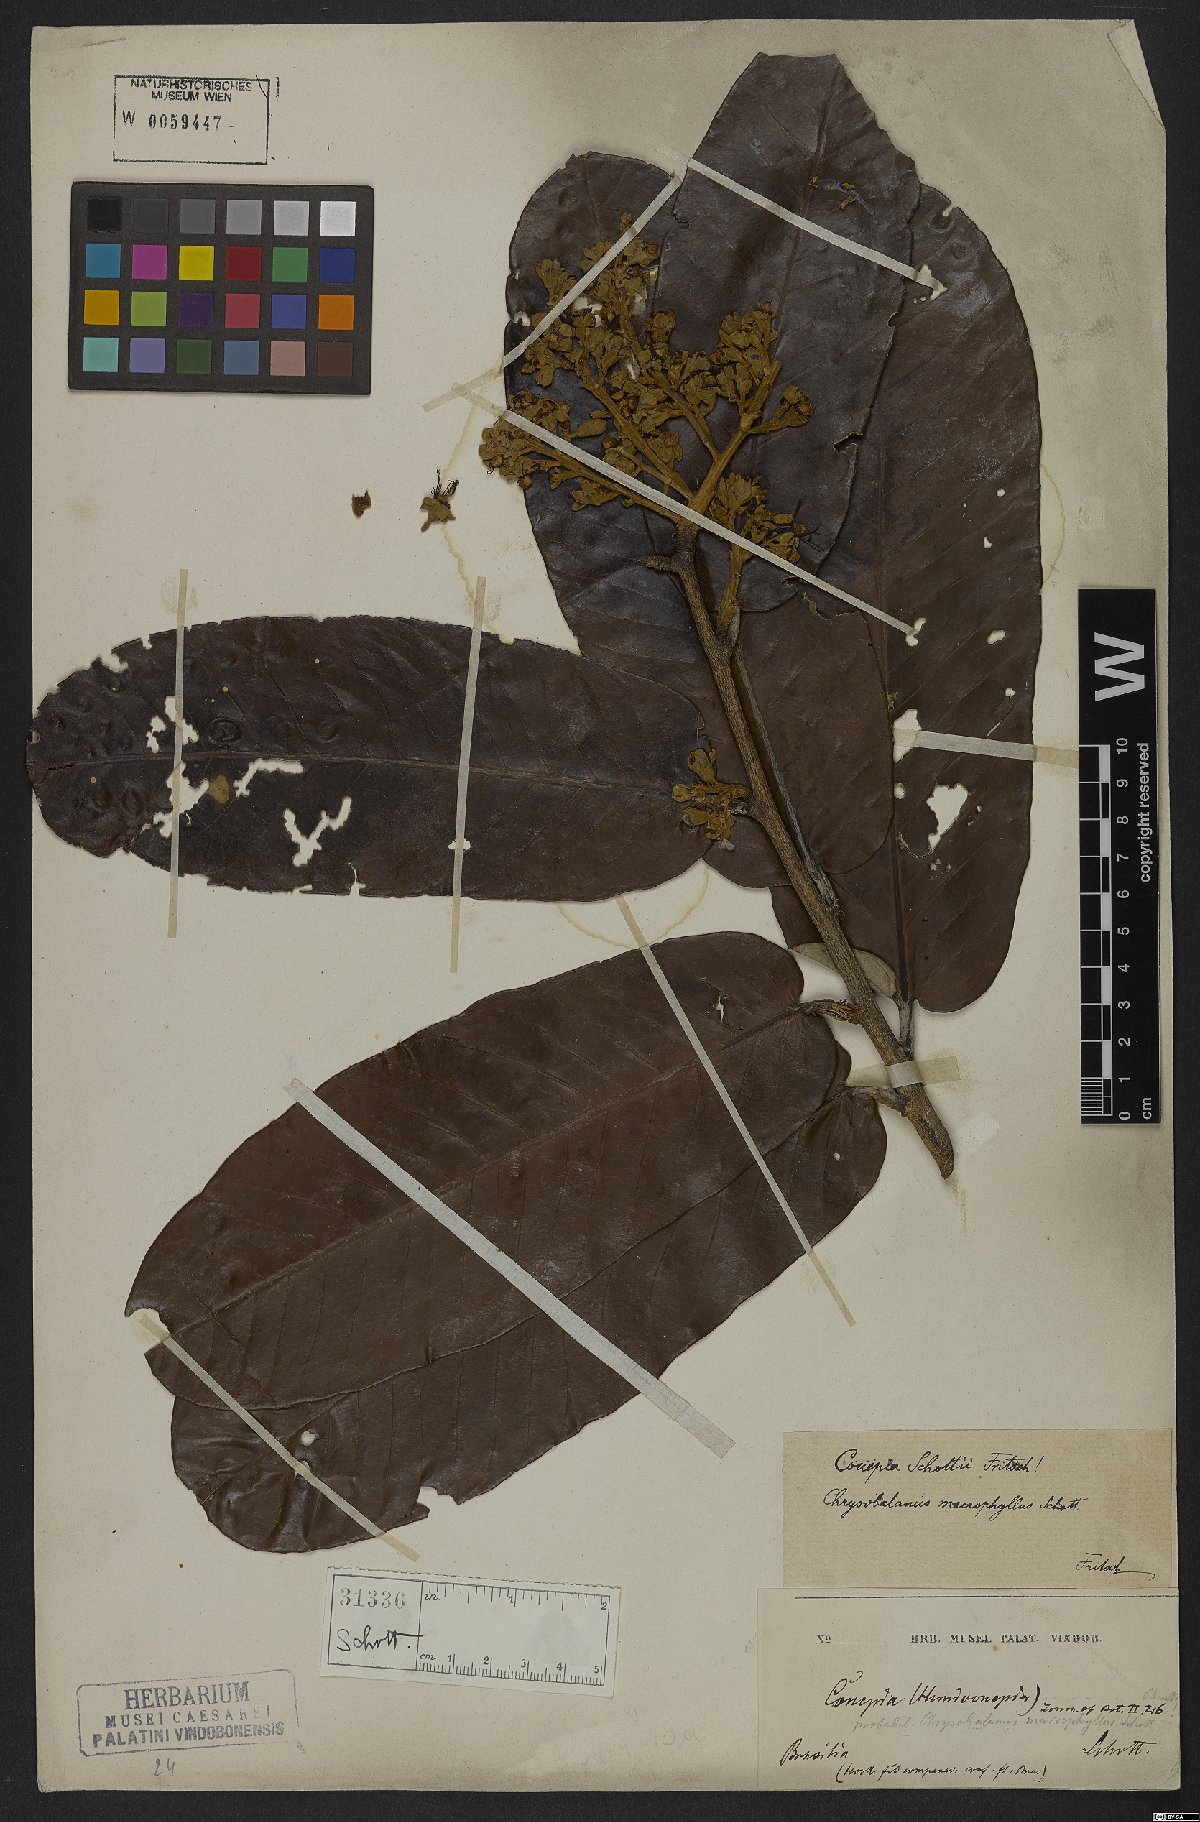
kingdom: Plantae
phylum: Tracheophyta
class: Magnoliopsida
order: Malpighiales
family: Chrysobalanaceae
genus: Couepia
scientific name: Couepia schottii
